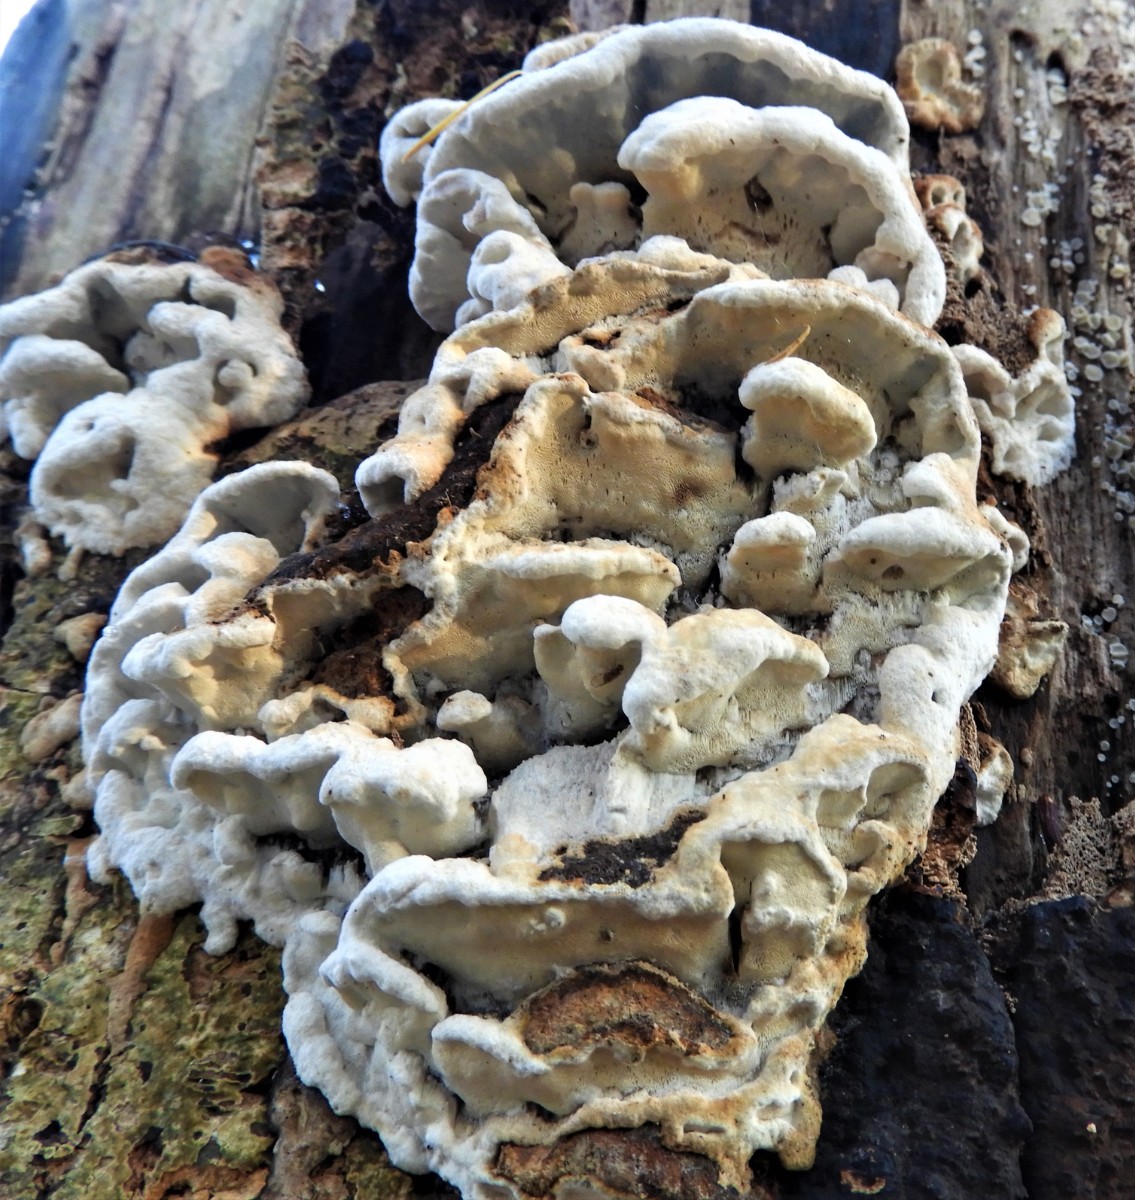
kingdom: Fungi
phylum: Basidiomycota
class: Agaricomycetes
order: Polyporales
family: Incrustoporiaceae
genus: Skeletocutis
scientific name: Skeletocutis nemoralis
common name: stor krystalporesvamp
